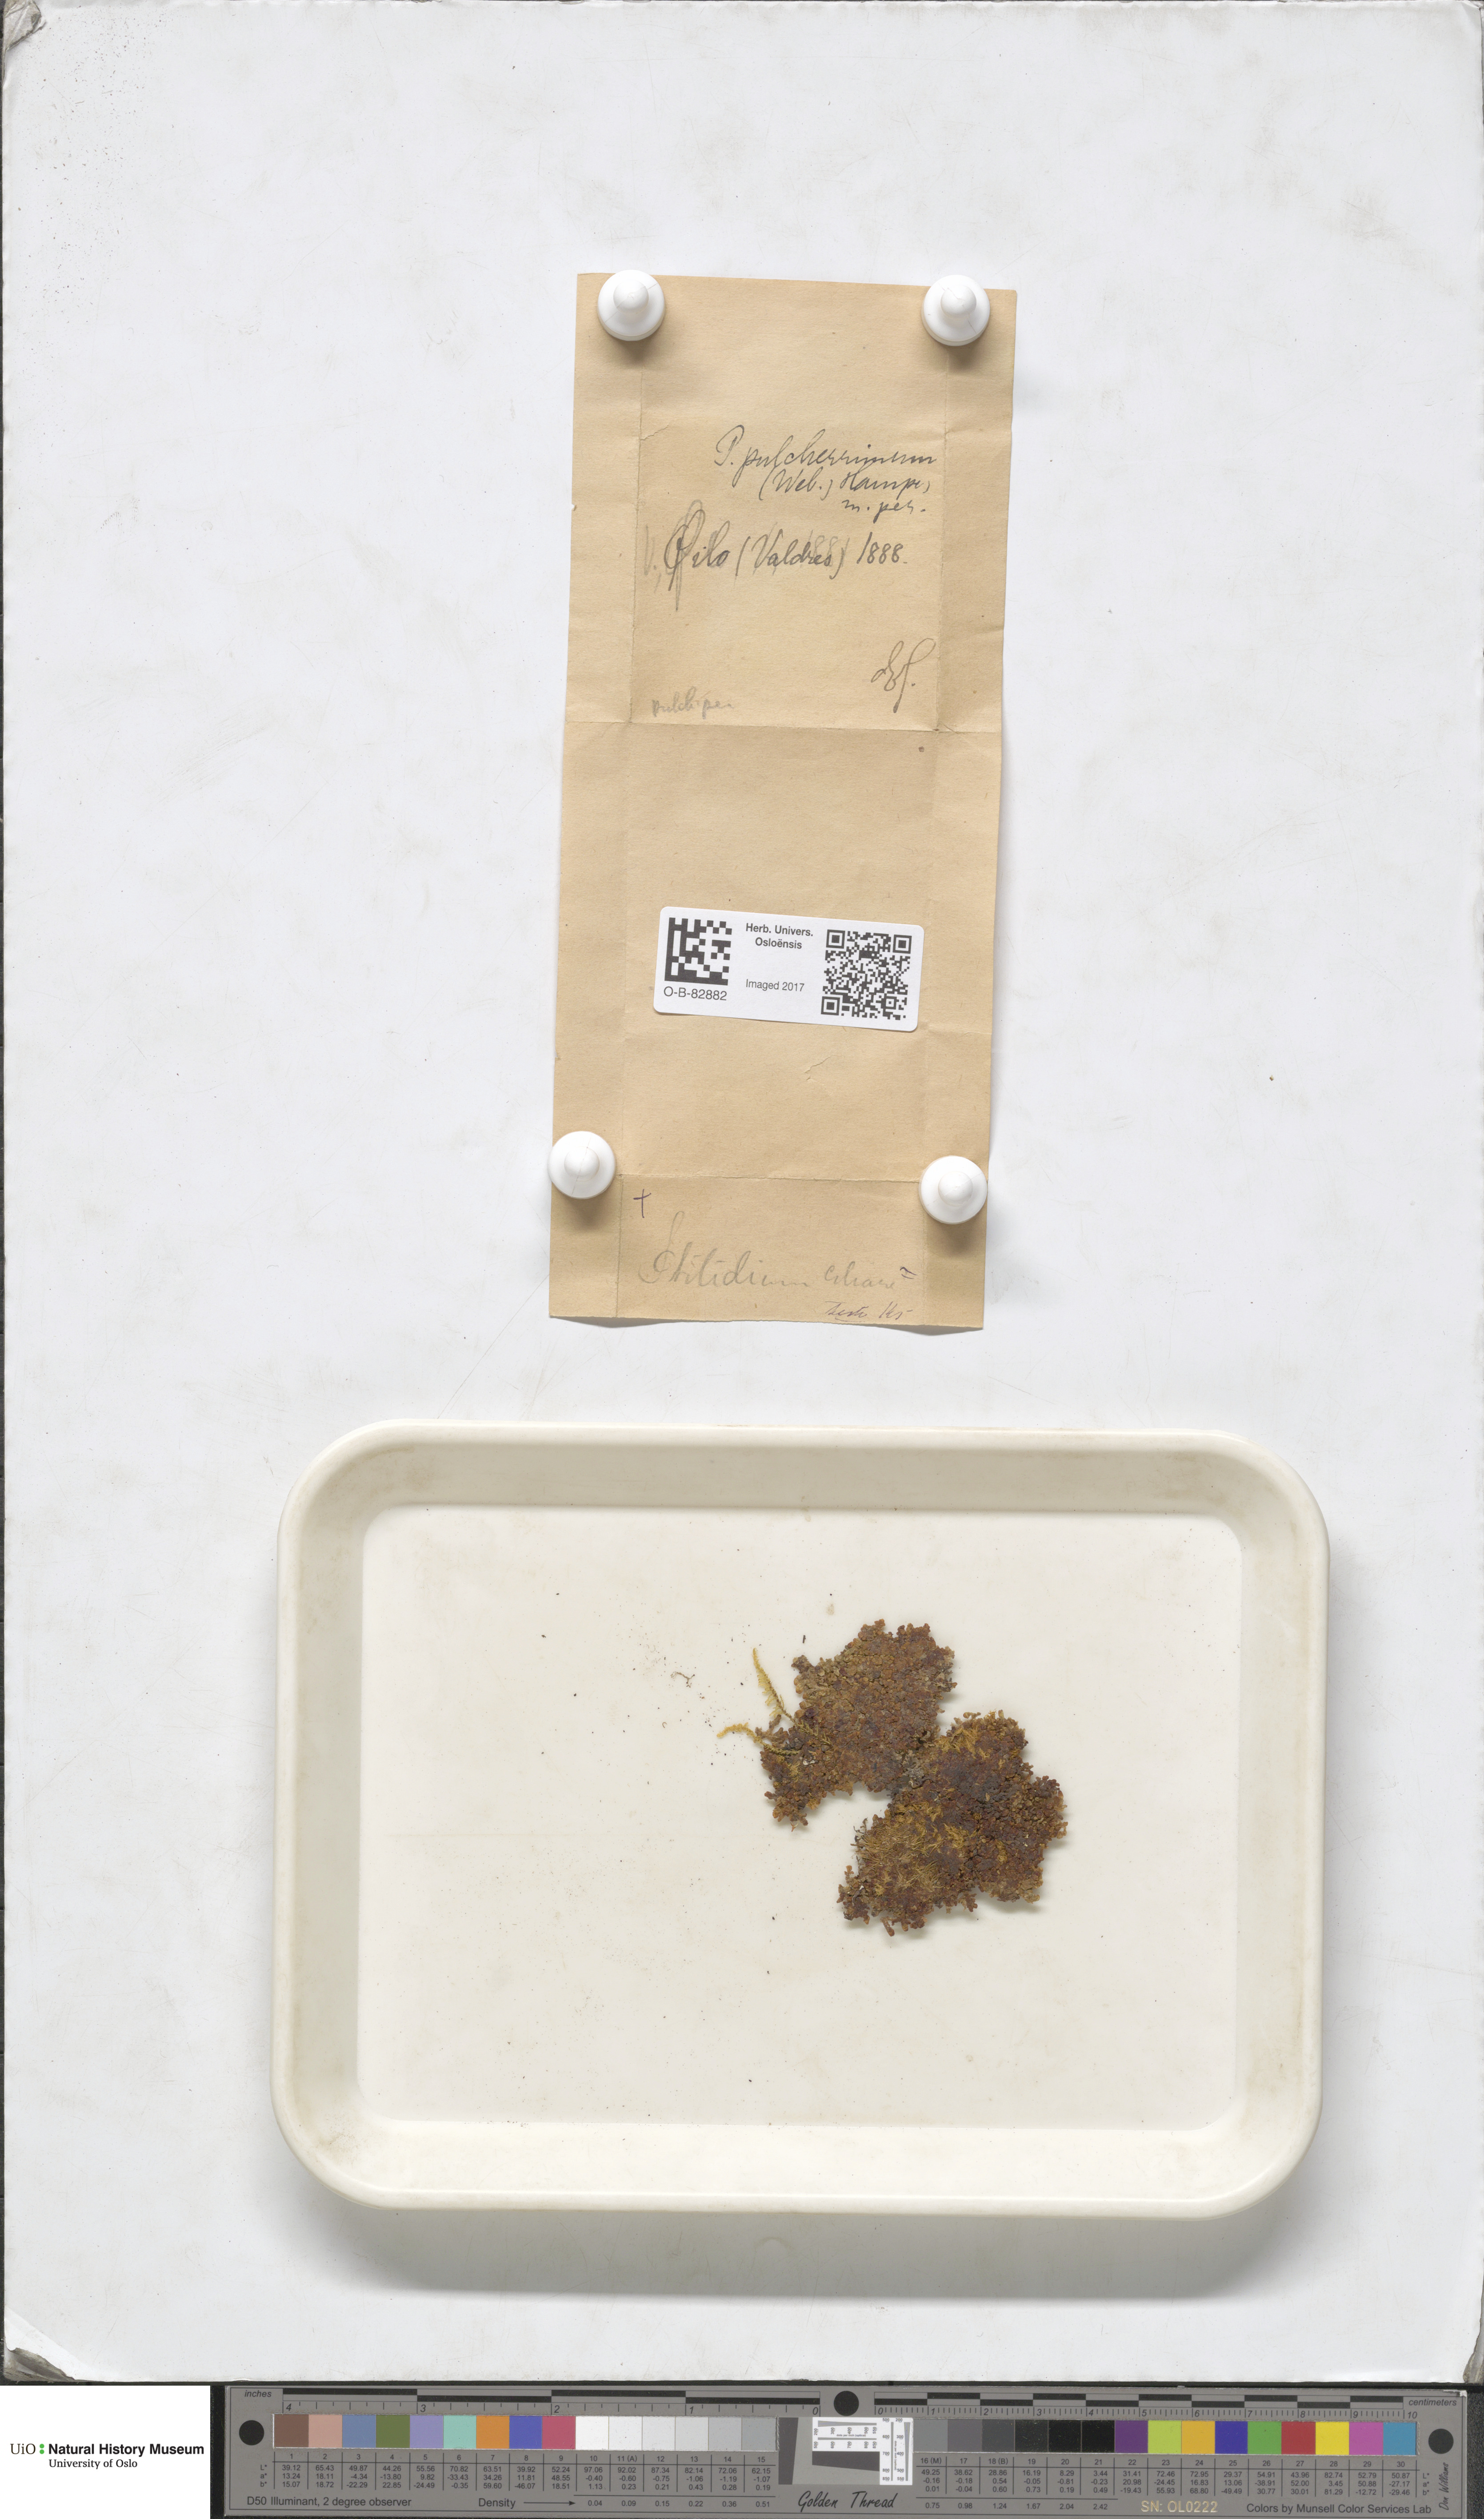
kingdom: Plantae
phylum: Marchantiophyta
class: Jungermanniopsida
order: Ptilidiales
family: Ptilidiaceae
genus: Ptilidium
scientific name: Ptilidium pulcherrimum
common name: Tree fringewort
